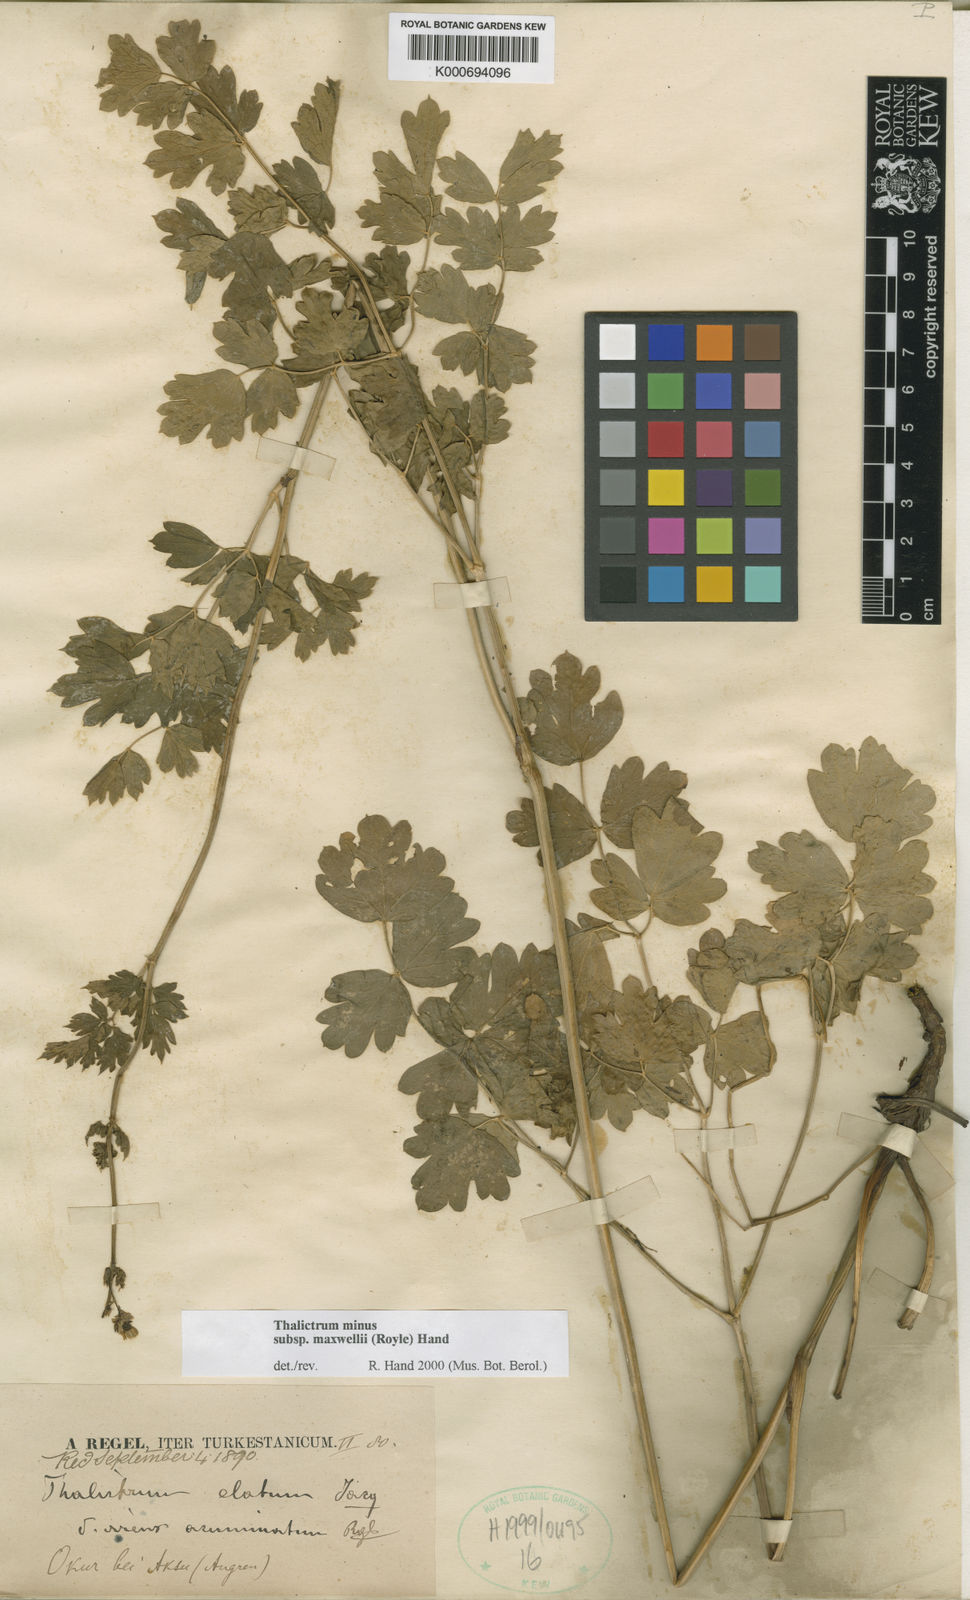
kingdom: Plantae
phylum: Tracheophyta
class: Magnoliopsida
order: Ranunculales
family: Ranunculaceae
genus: Thalictrum
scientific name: Thalictrum minus
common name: Lesser meadow-rue
